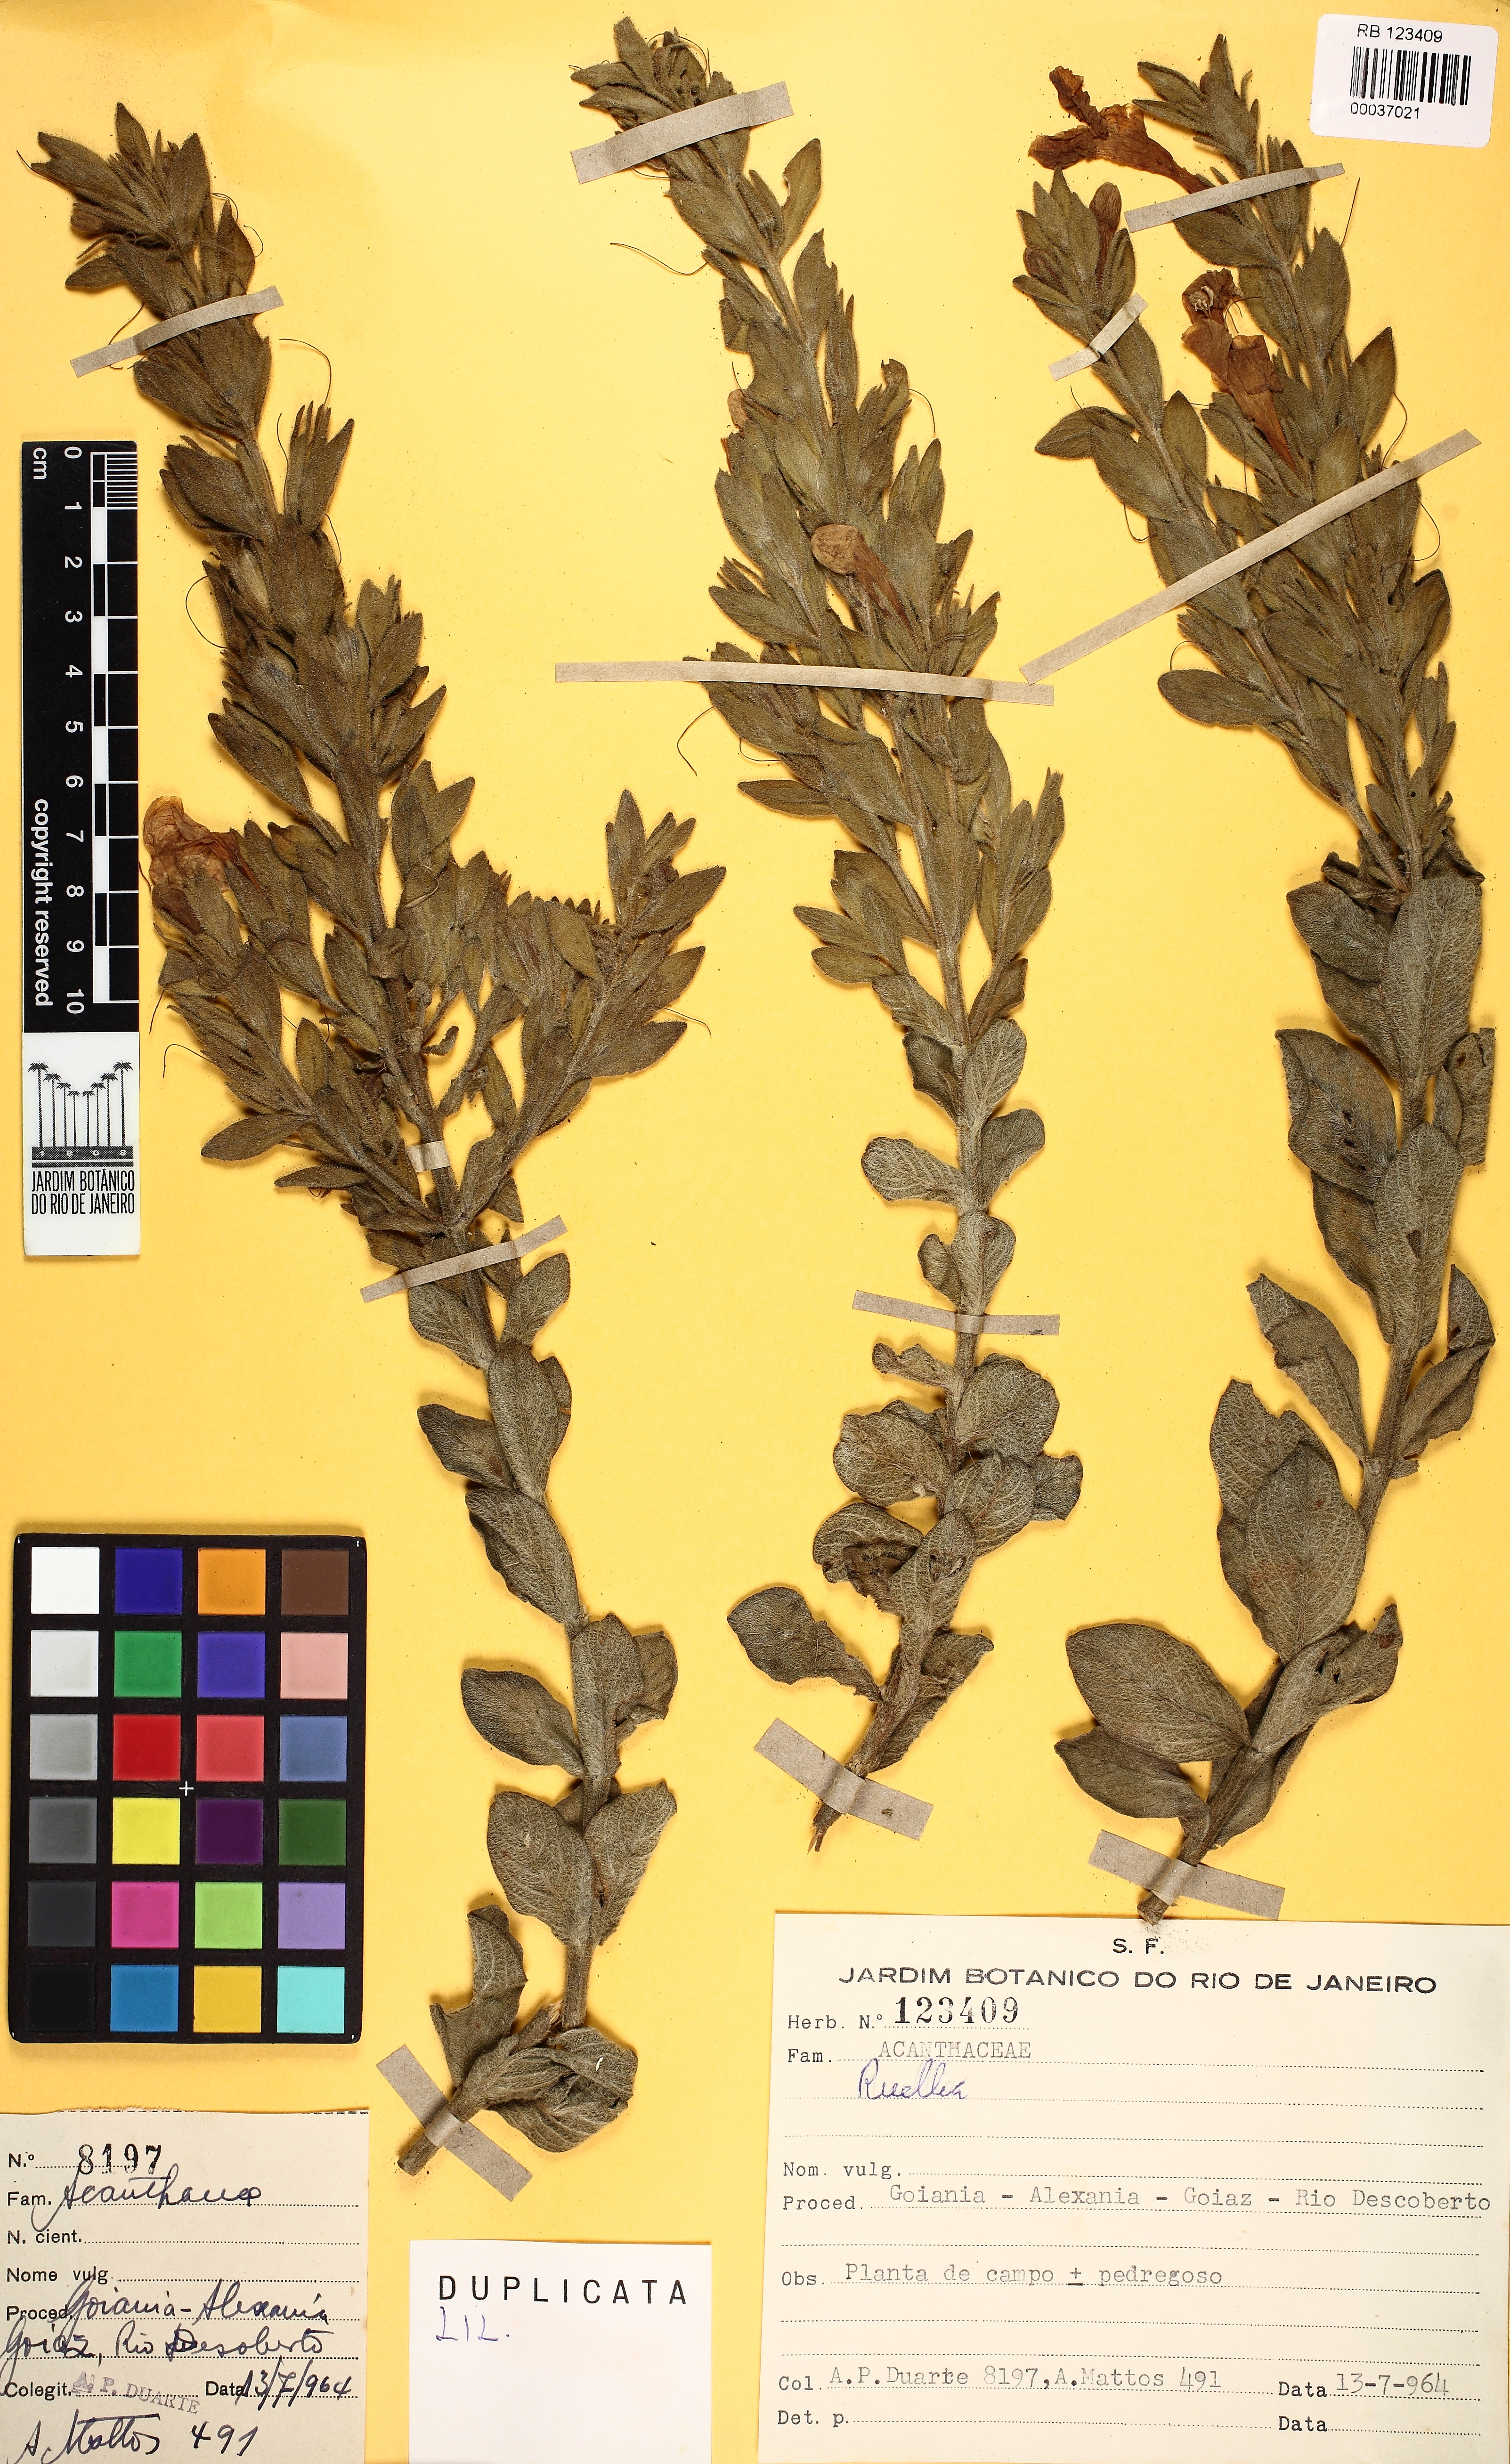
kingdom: Plantae
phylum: Tracheophyta
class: Magnoliopsida
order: Lamiales
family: Acanthaceae
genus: Ruellia
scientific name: Ruellia
